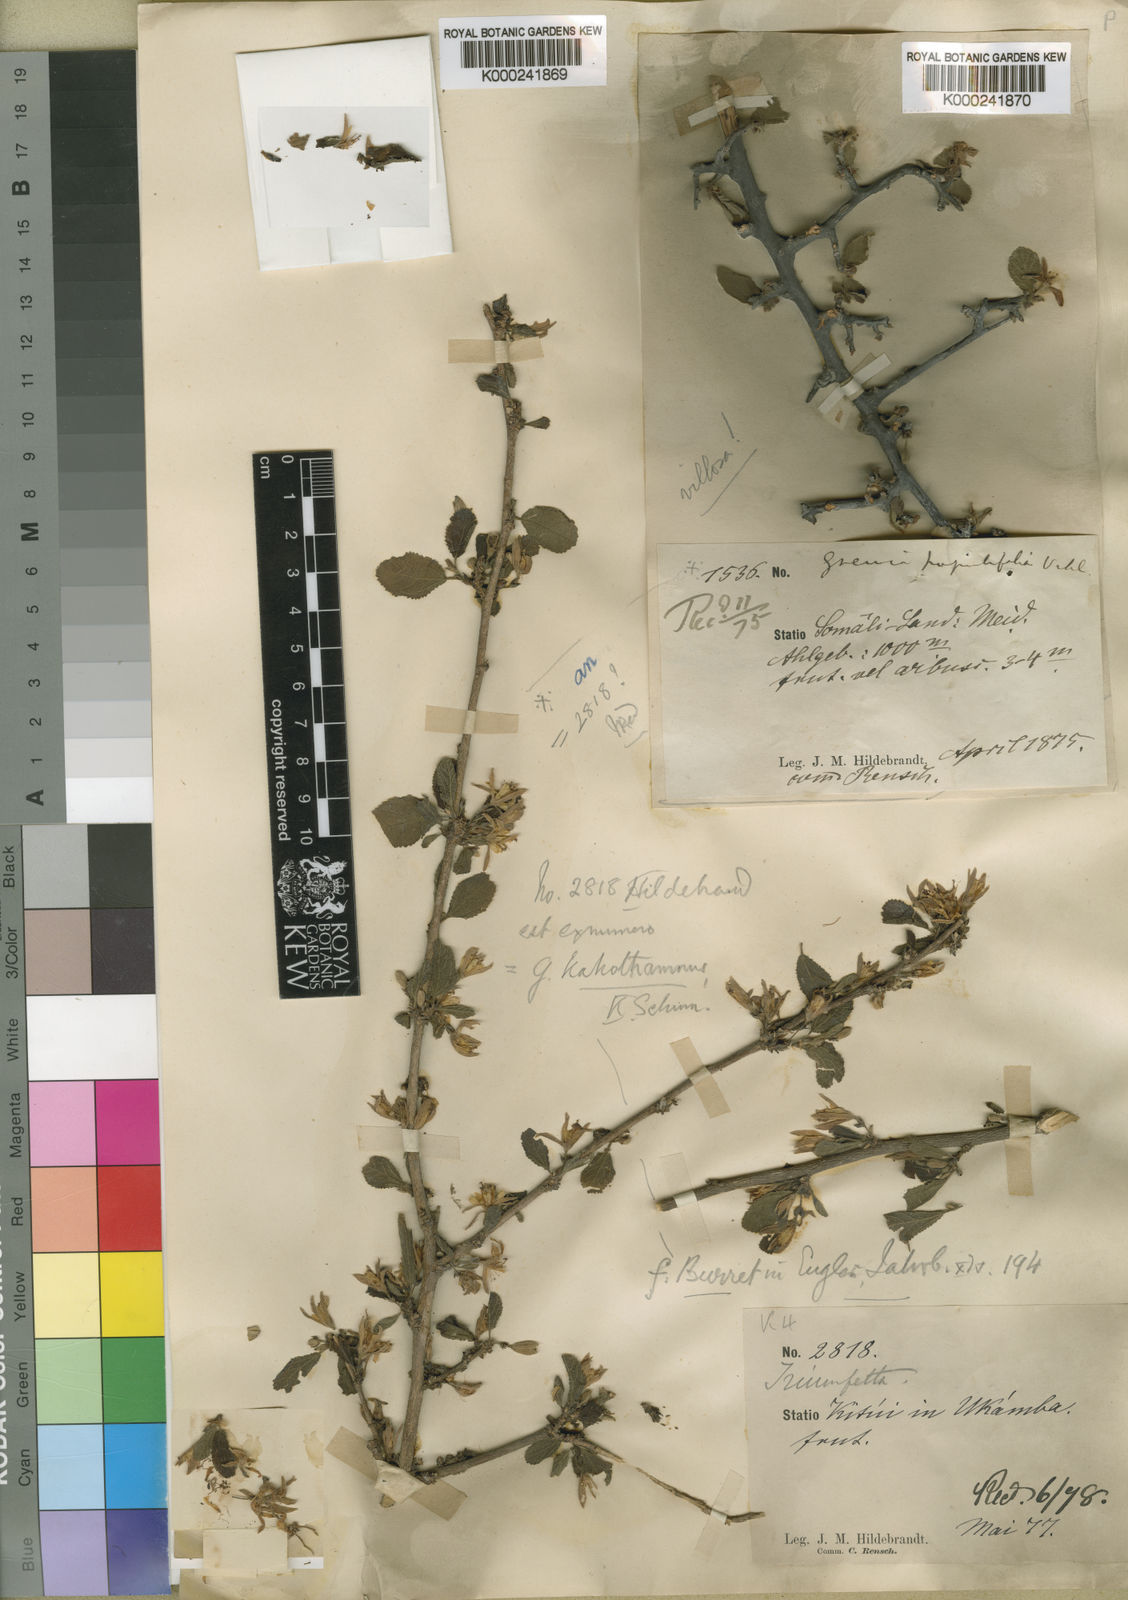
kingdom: Plantae
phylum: Tracheophyta
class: Magnoliopsida
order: Malvales
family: Malvaceae
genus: Grewia
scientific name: Grewia kakothamnos
